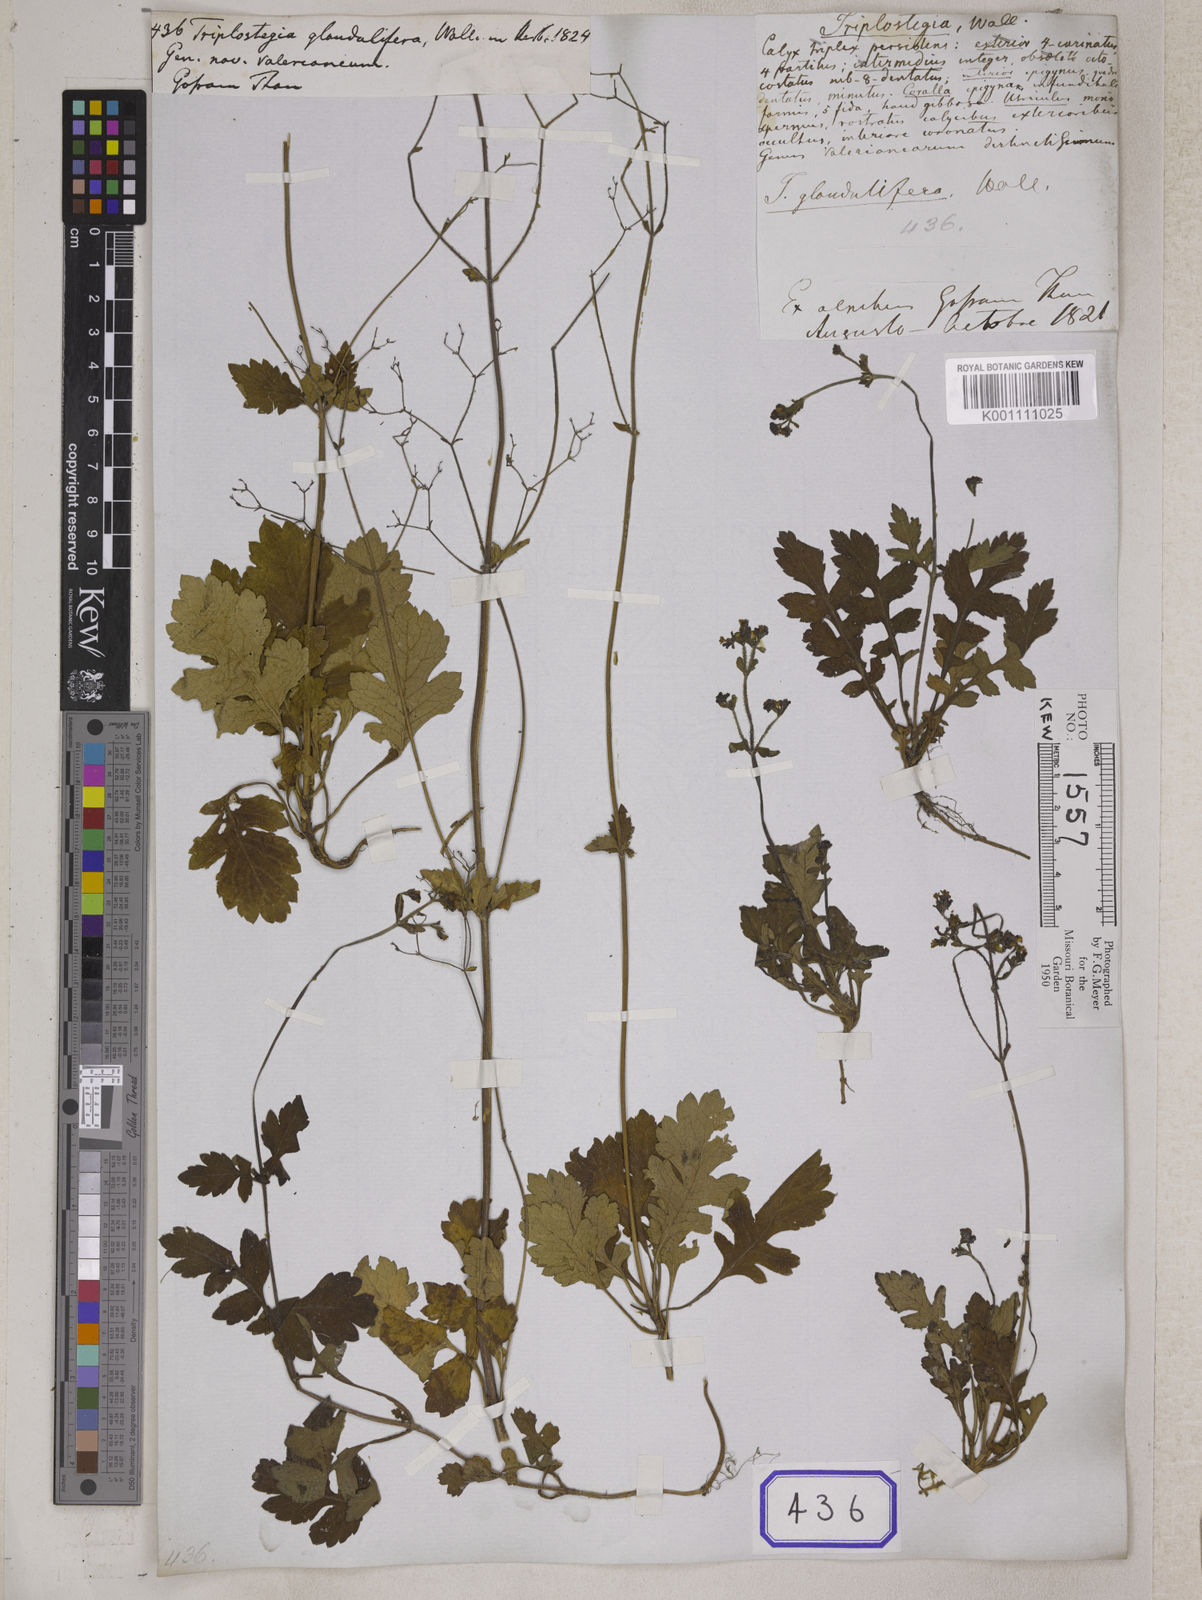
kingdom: Plantae
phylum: Tracheophyta
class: Magnoliopsida
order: Dipsacales
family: Caprifoliaceae
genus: Triplostegia
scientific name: Triplostegia
